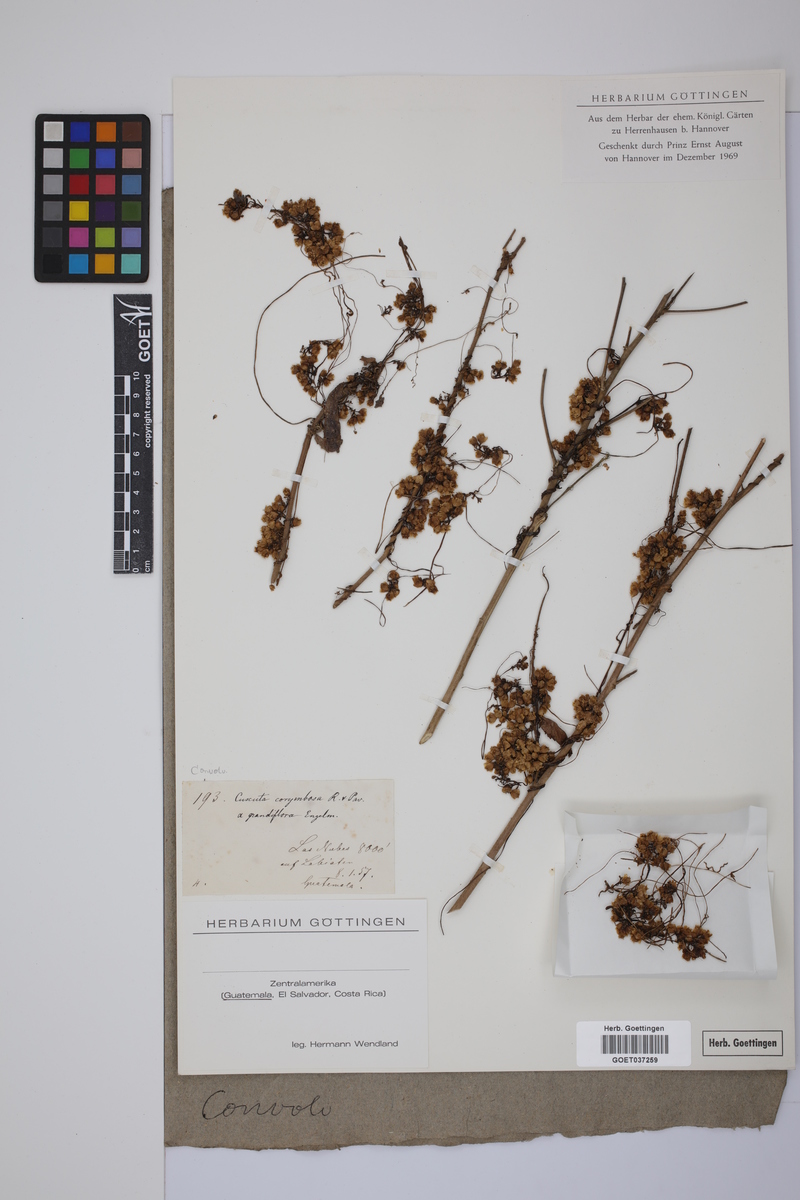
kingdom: Plantae
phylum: Tracheophyta
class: Magnoliopsida
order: Solanales
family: Convolvulaceae
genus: Cuscuta
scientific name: Cuscuta corymbosa
